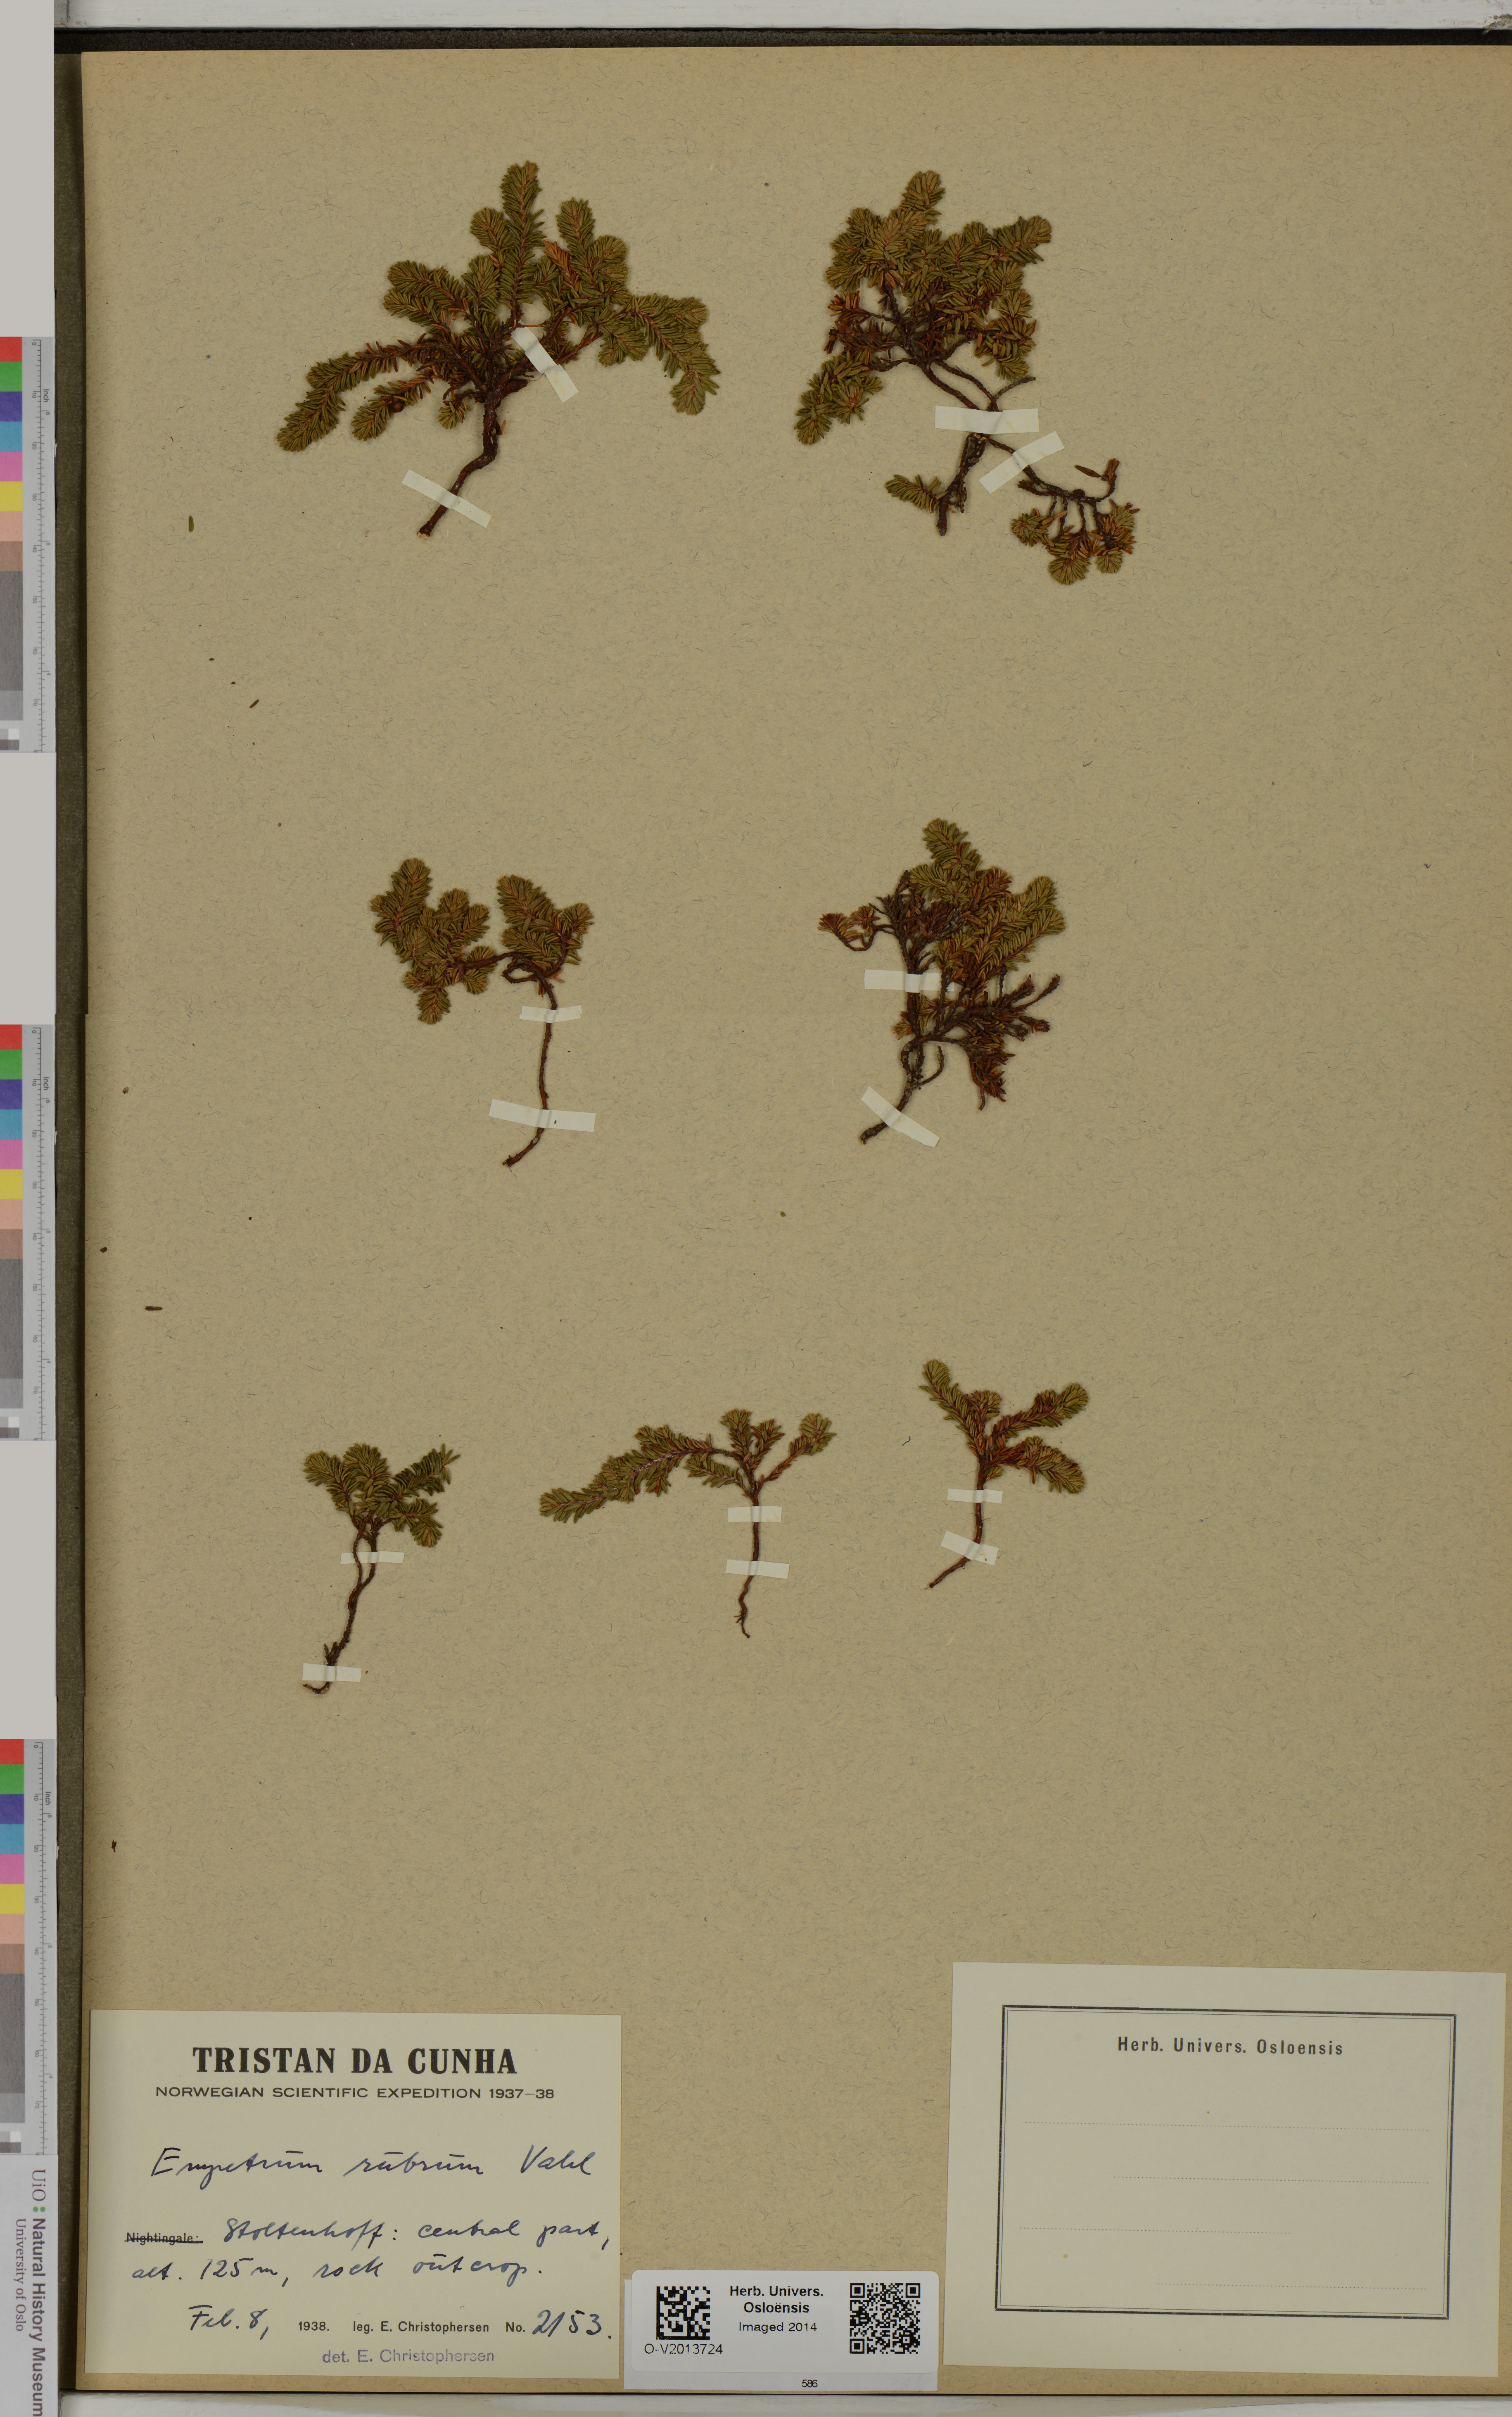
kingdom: Plantae
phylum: Tracheophyta
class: Magnoliopsida
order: Ericales
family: Ericaceae
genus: Empetrum
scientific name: Empetrum rubrum
